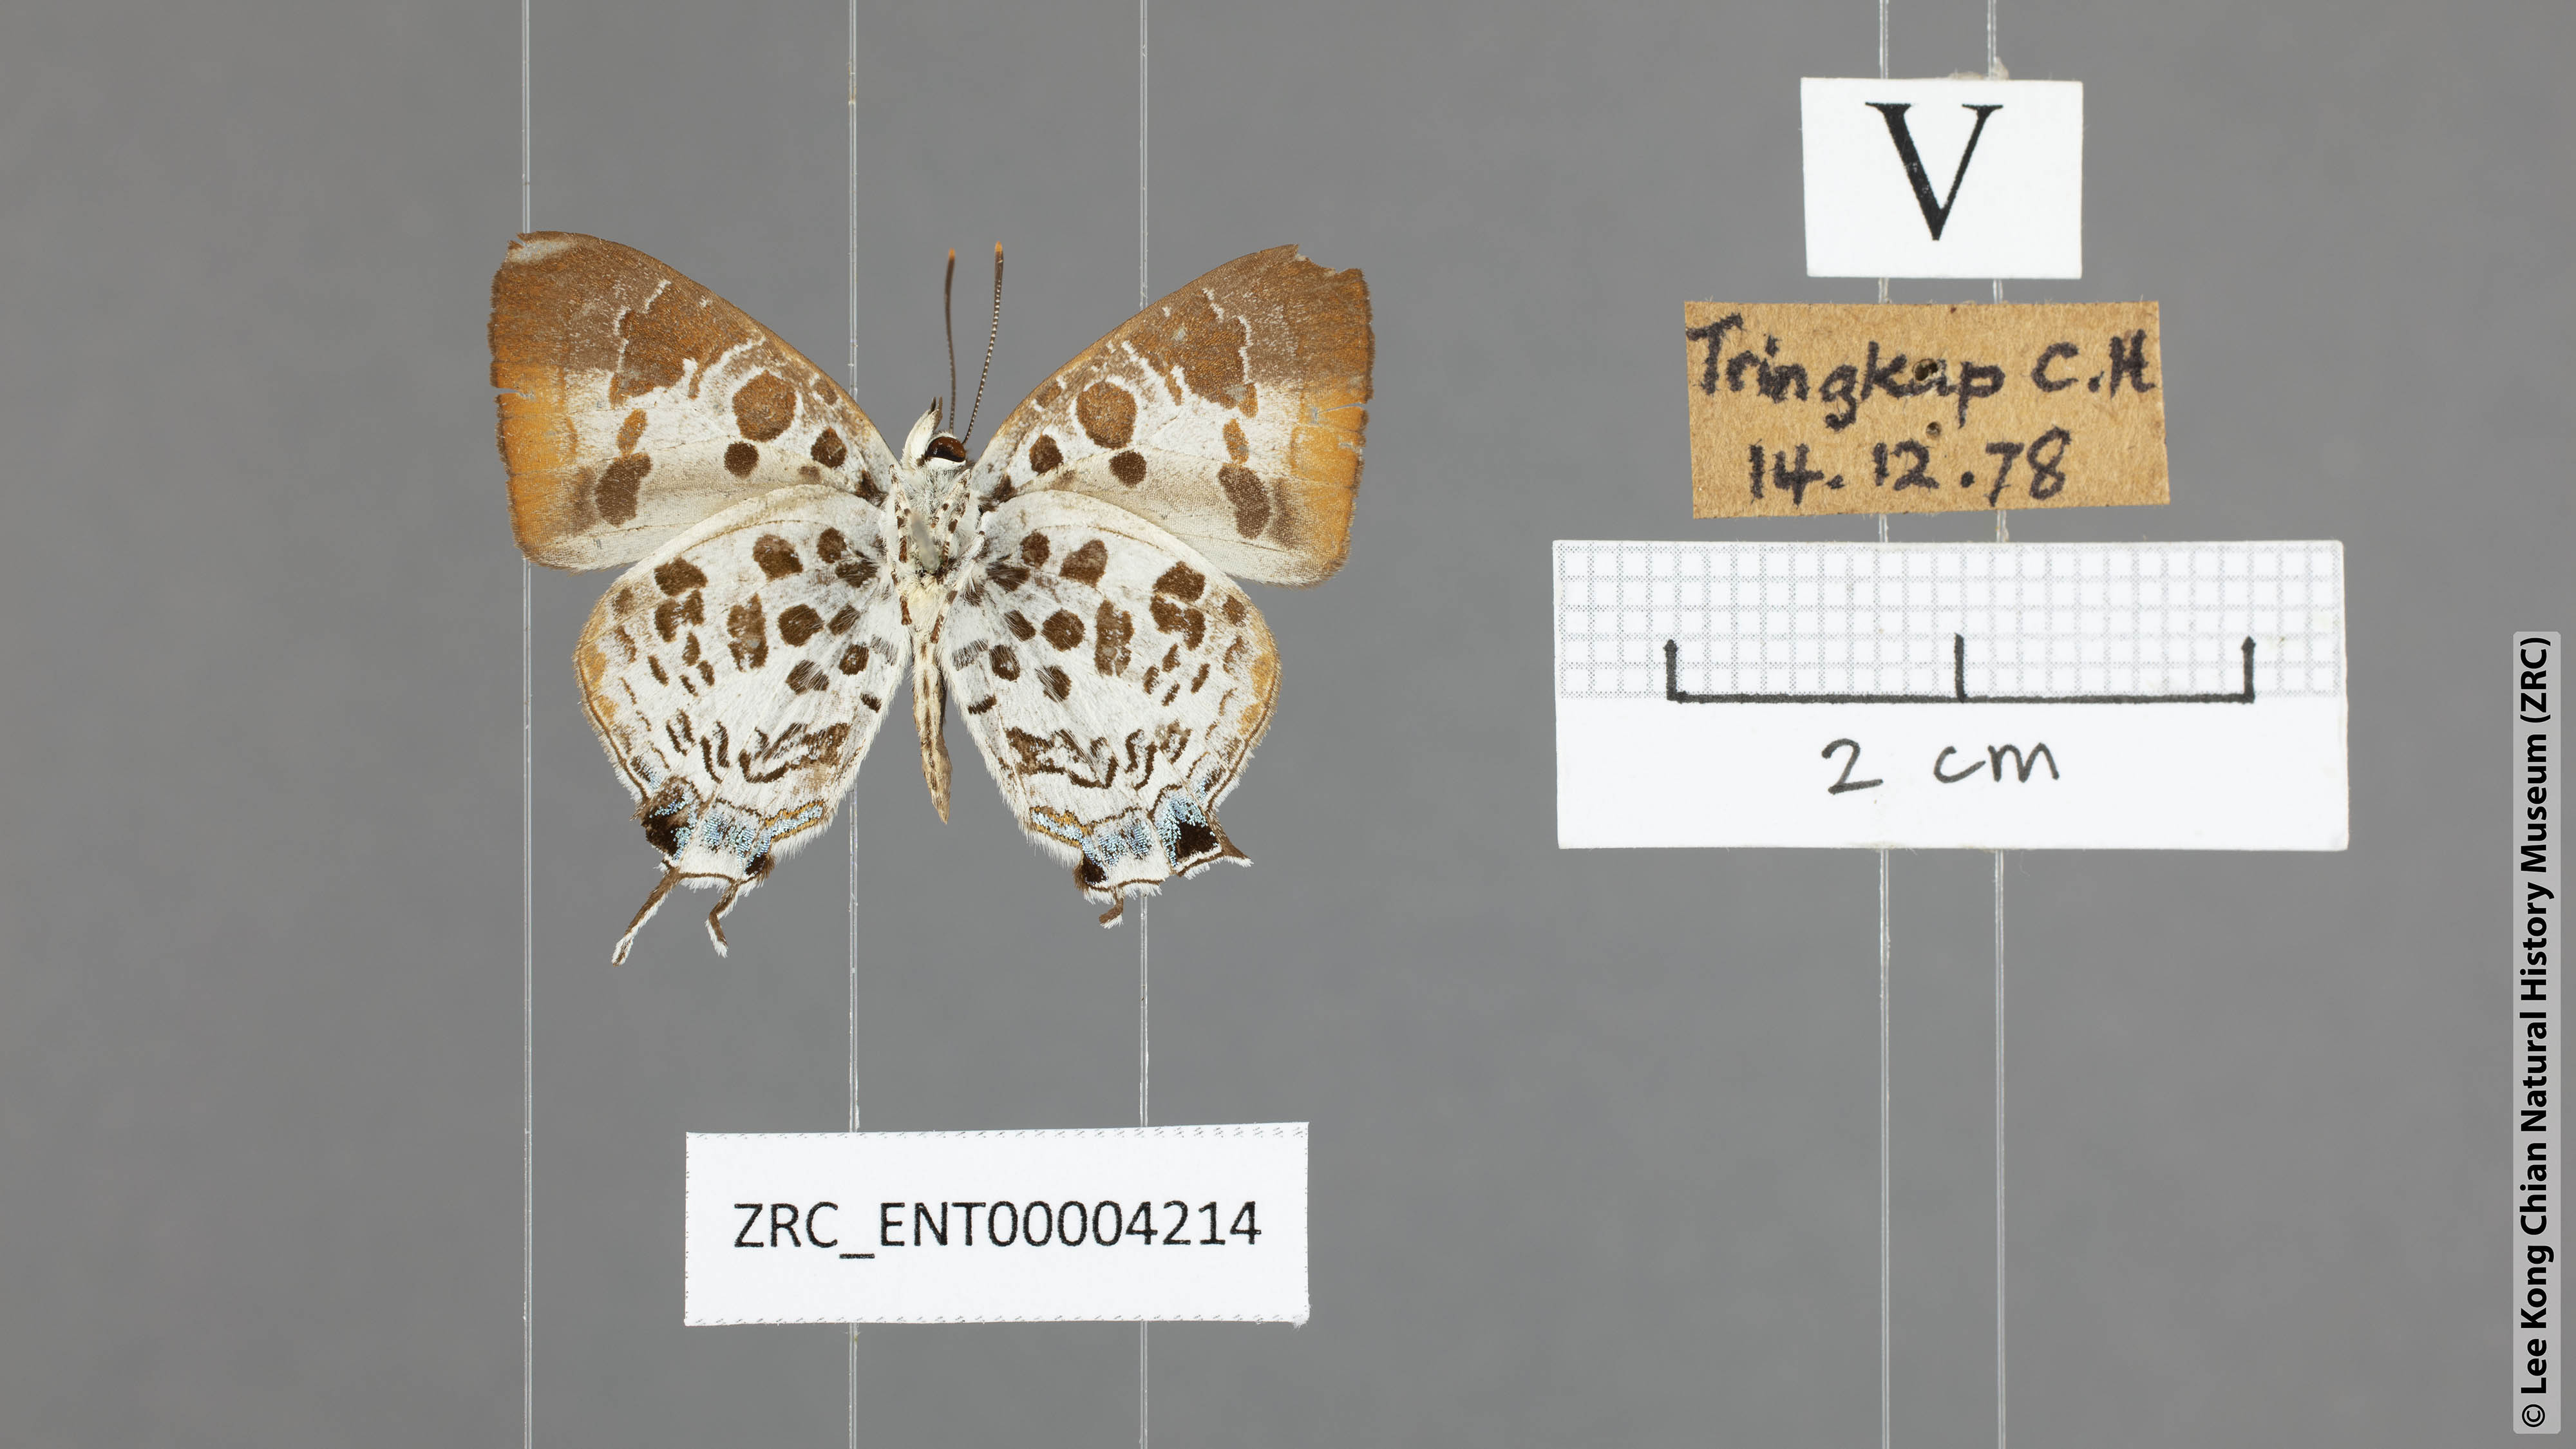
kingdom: Animalia
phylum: Arthropoda
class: Insecta
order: Lepidoptera
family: Lycaenidae
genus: Drupadia
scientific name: Drupadia estella
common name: White-craved posy
